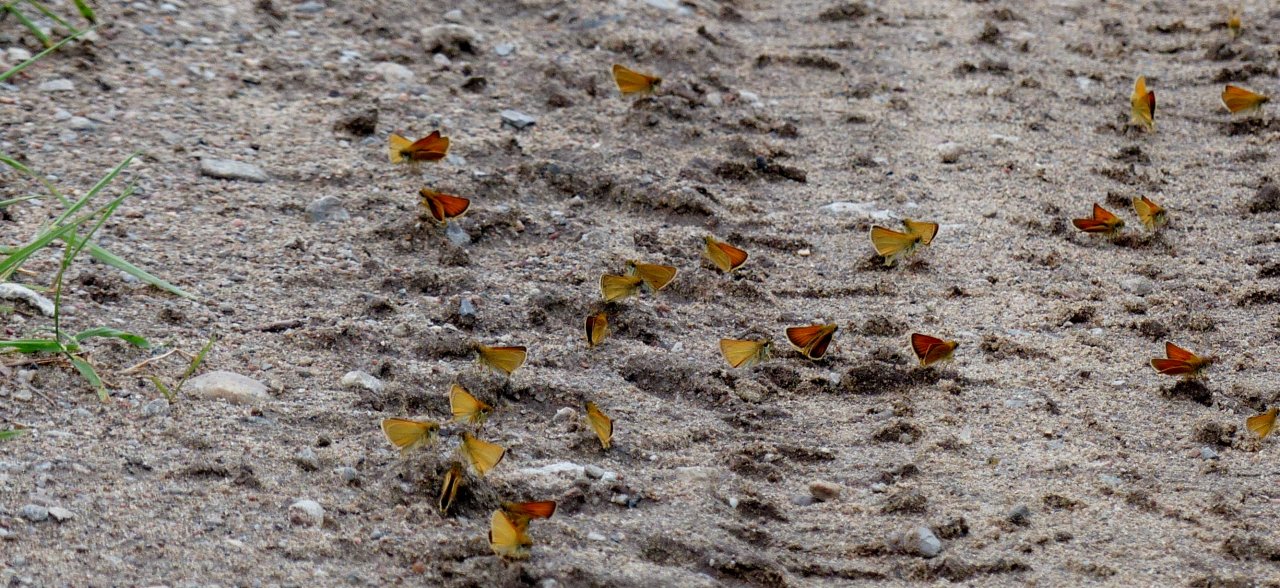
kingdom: Animalia
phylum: Arthropoda
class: Insecta
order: Lepidoptera
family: Hesperiidae
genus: Thymelicus
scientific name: Thymelicus lineola
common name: European Skipper
